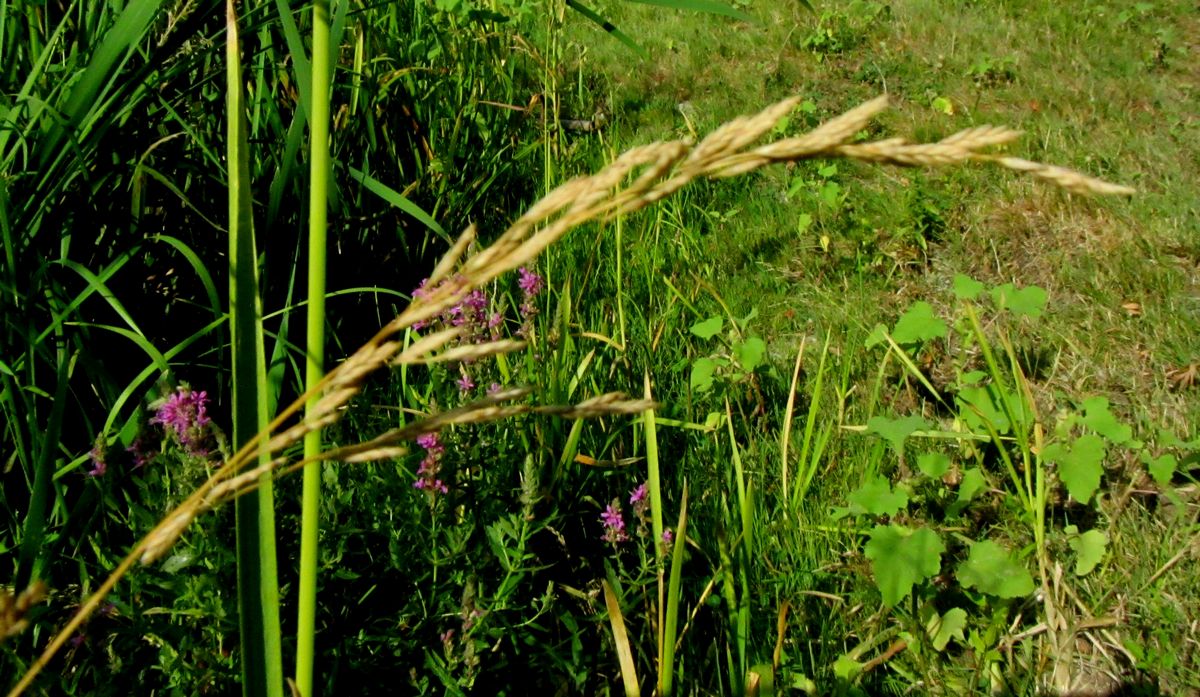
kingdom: Plantae
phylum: Tracheophyta
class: Liliopsida
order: Poales
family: Poaceae
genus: Glyceria
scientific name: Glyceria maxima
